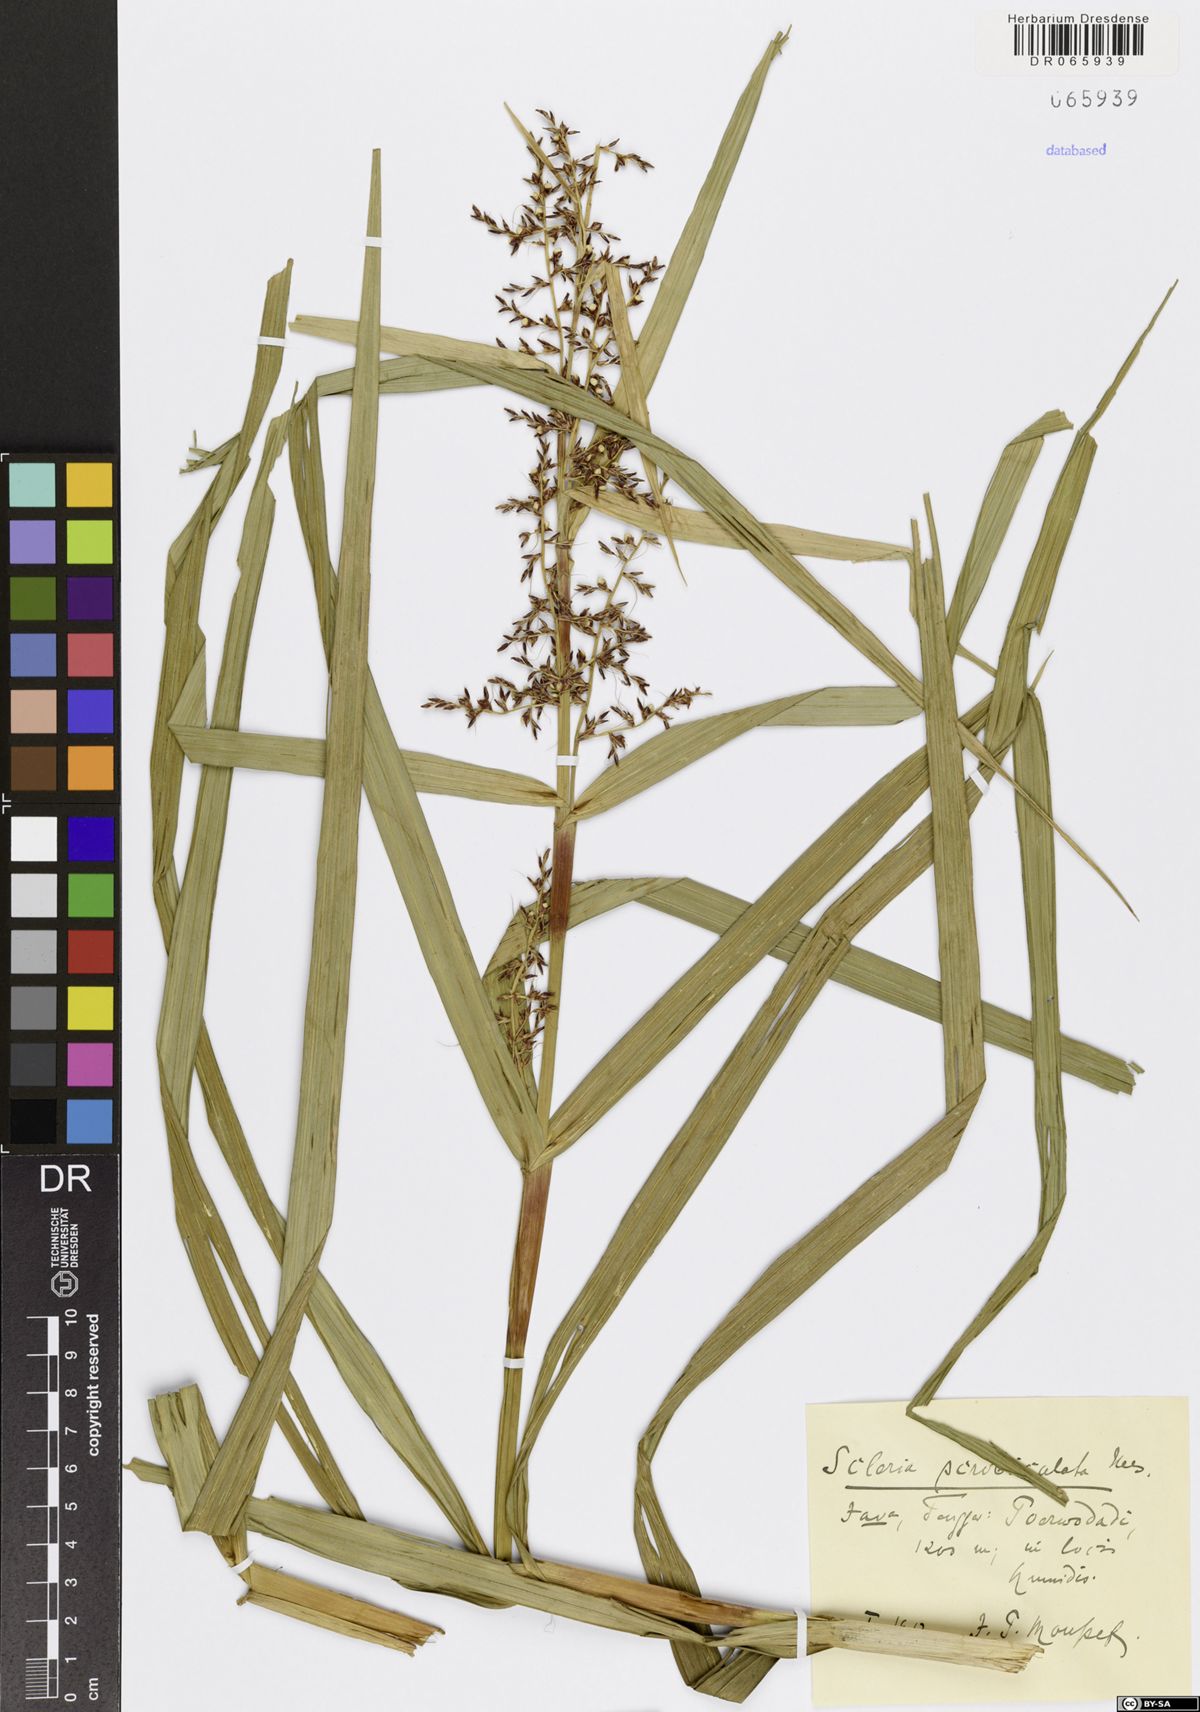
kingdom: Plantae
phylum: Tracheophyta
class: Liliopsida
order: Poales
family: Cyperaceae
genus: Scleria
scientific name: Scleria scrobiculata
